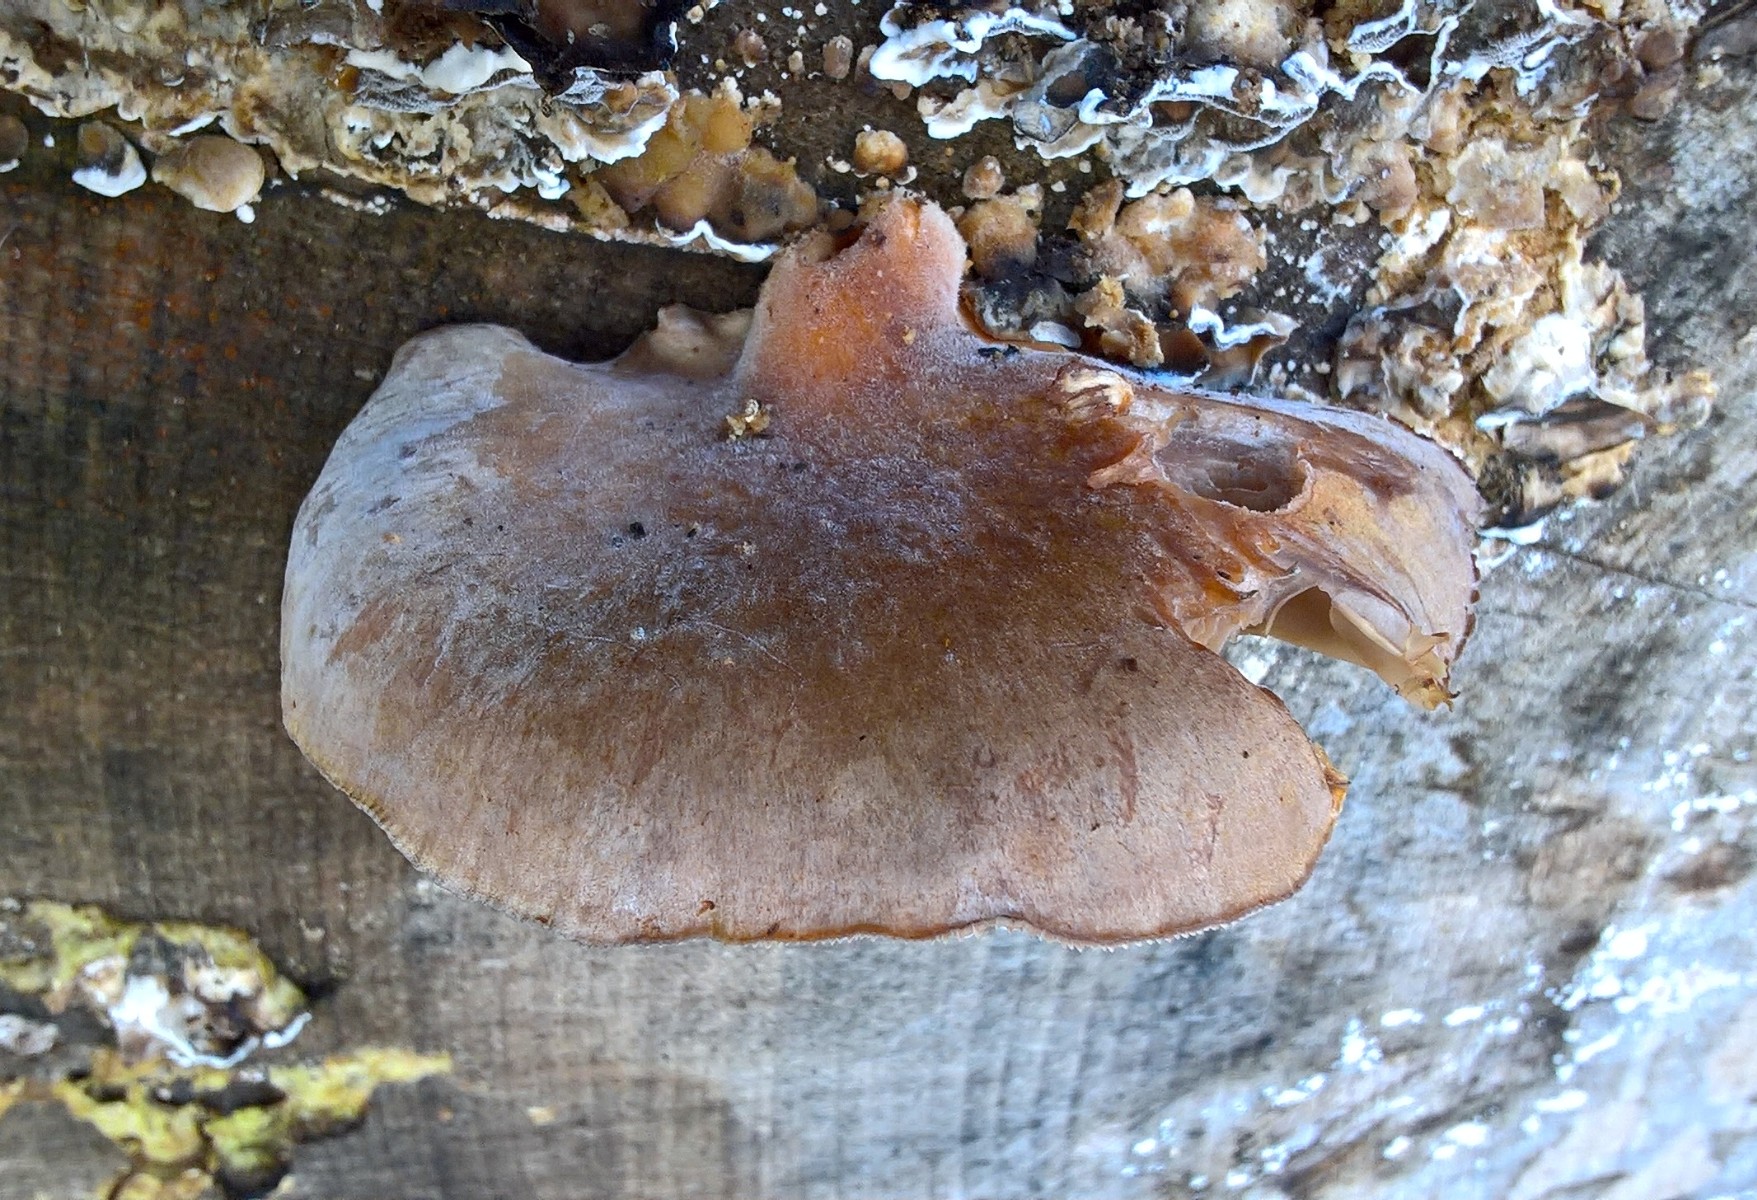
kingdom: Fungi
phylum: Basidiomycota
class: Agaricomycetes
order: Agaricales
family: Pleurotaceae
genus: Pleurotus
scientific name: Pleurotus ostreatus
